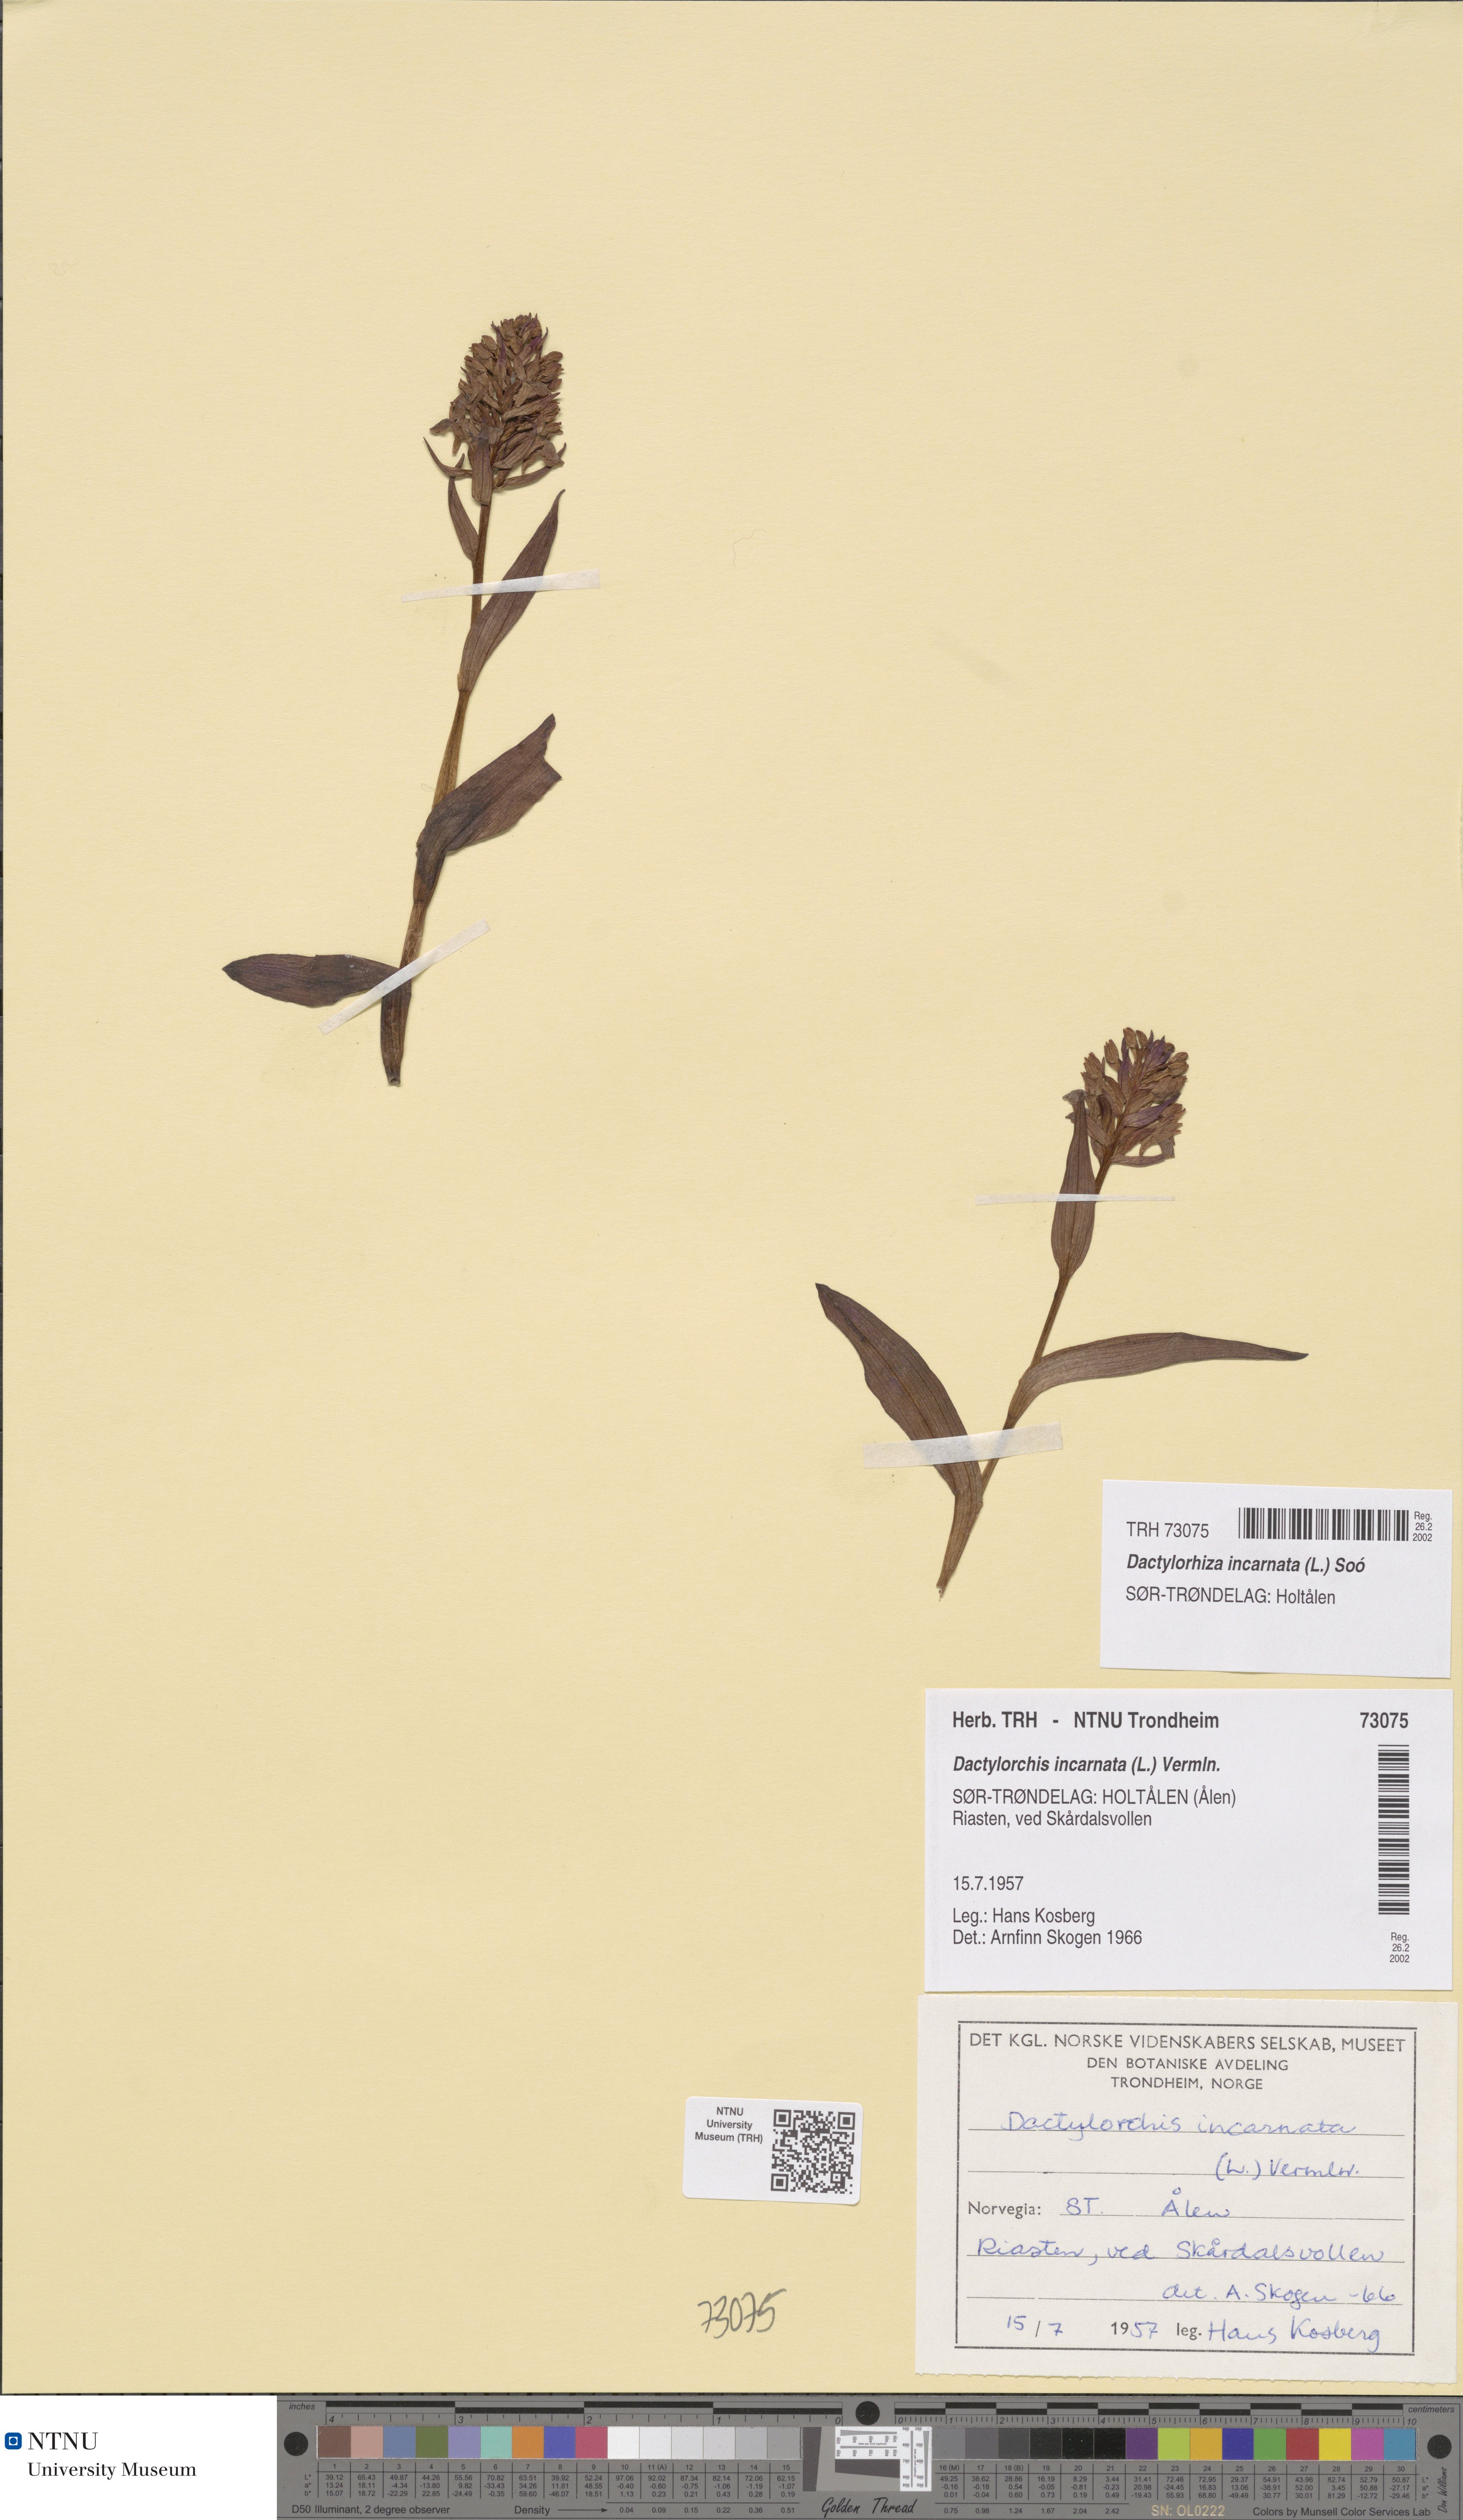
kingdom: Plantae
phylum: Tracheophyta
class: Liliopsida
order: Asparagales
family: Orchidaceae
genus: Dactylorhiza
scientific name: Dactylorhiza incarnata
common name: Early marsh-orchid
